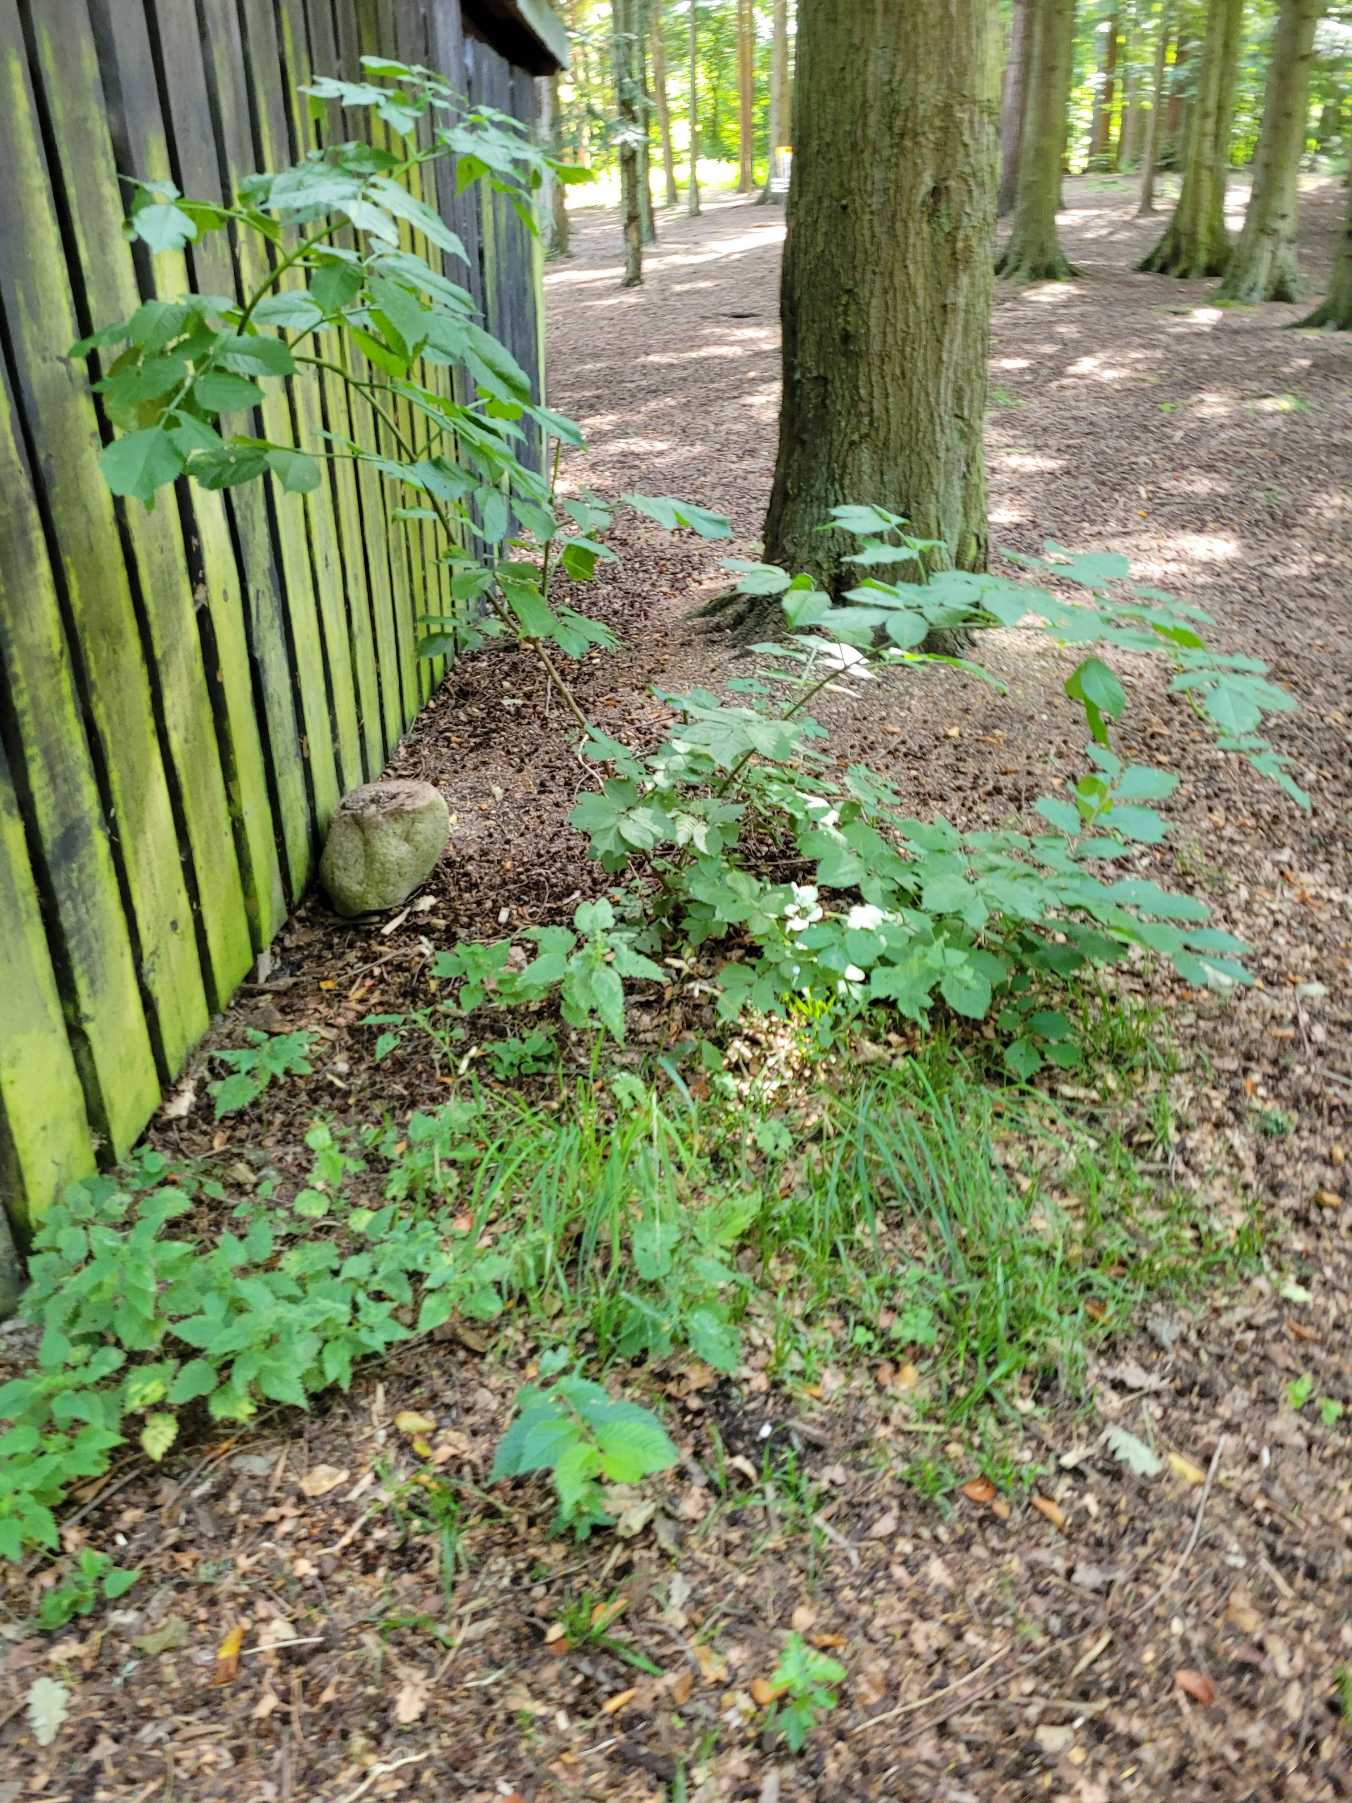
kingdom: Plantae
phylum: Tracheophyta
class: Magnoliopsida
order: Dipsacales
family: Viburnaceae
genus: Sambucus
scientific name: Sambucus
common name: Hyldeslægten
